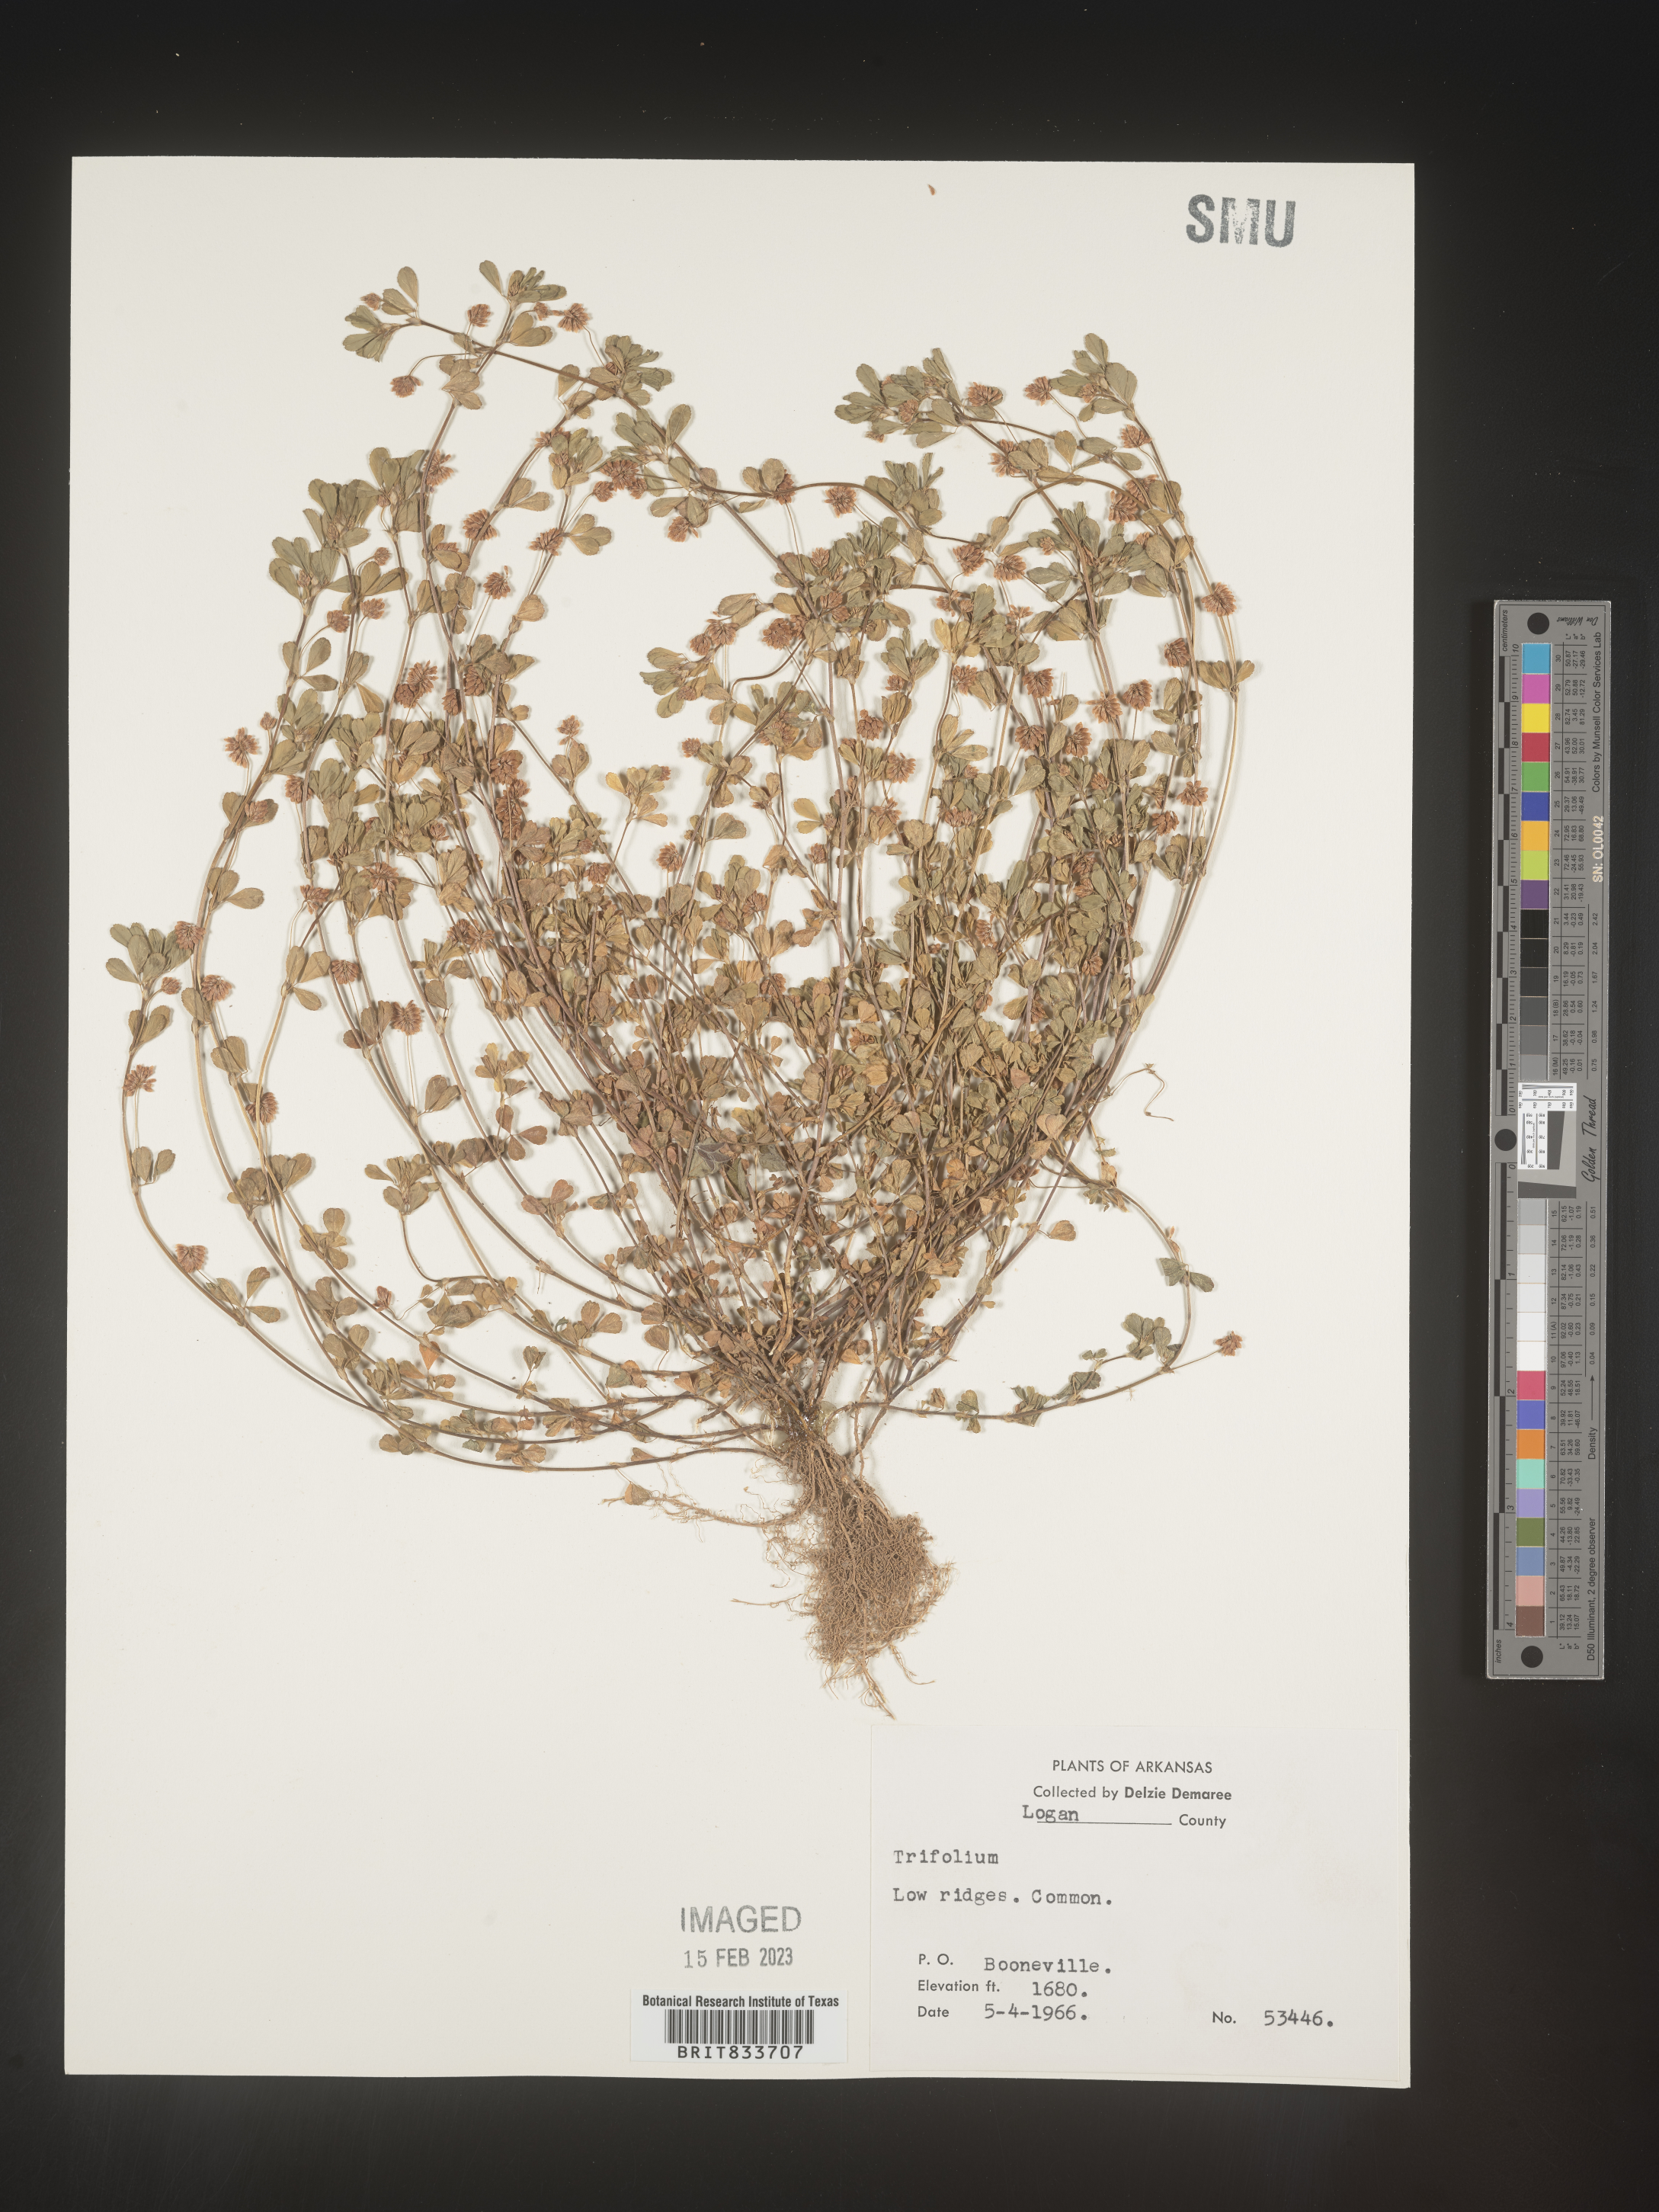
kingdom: Plantae
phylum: Tracheophyta
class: Magnoliopsida
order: Fabales
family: Fabaceae
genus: Trifolium
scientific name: Trifolium dubium
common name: Suckling clover
